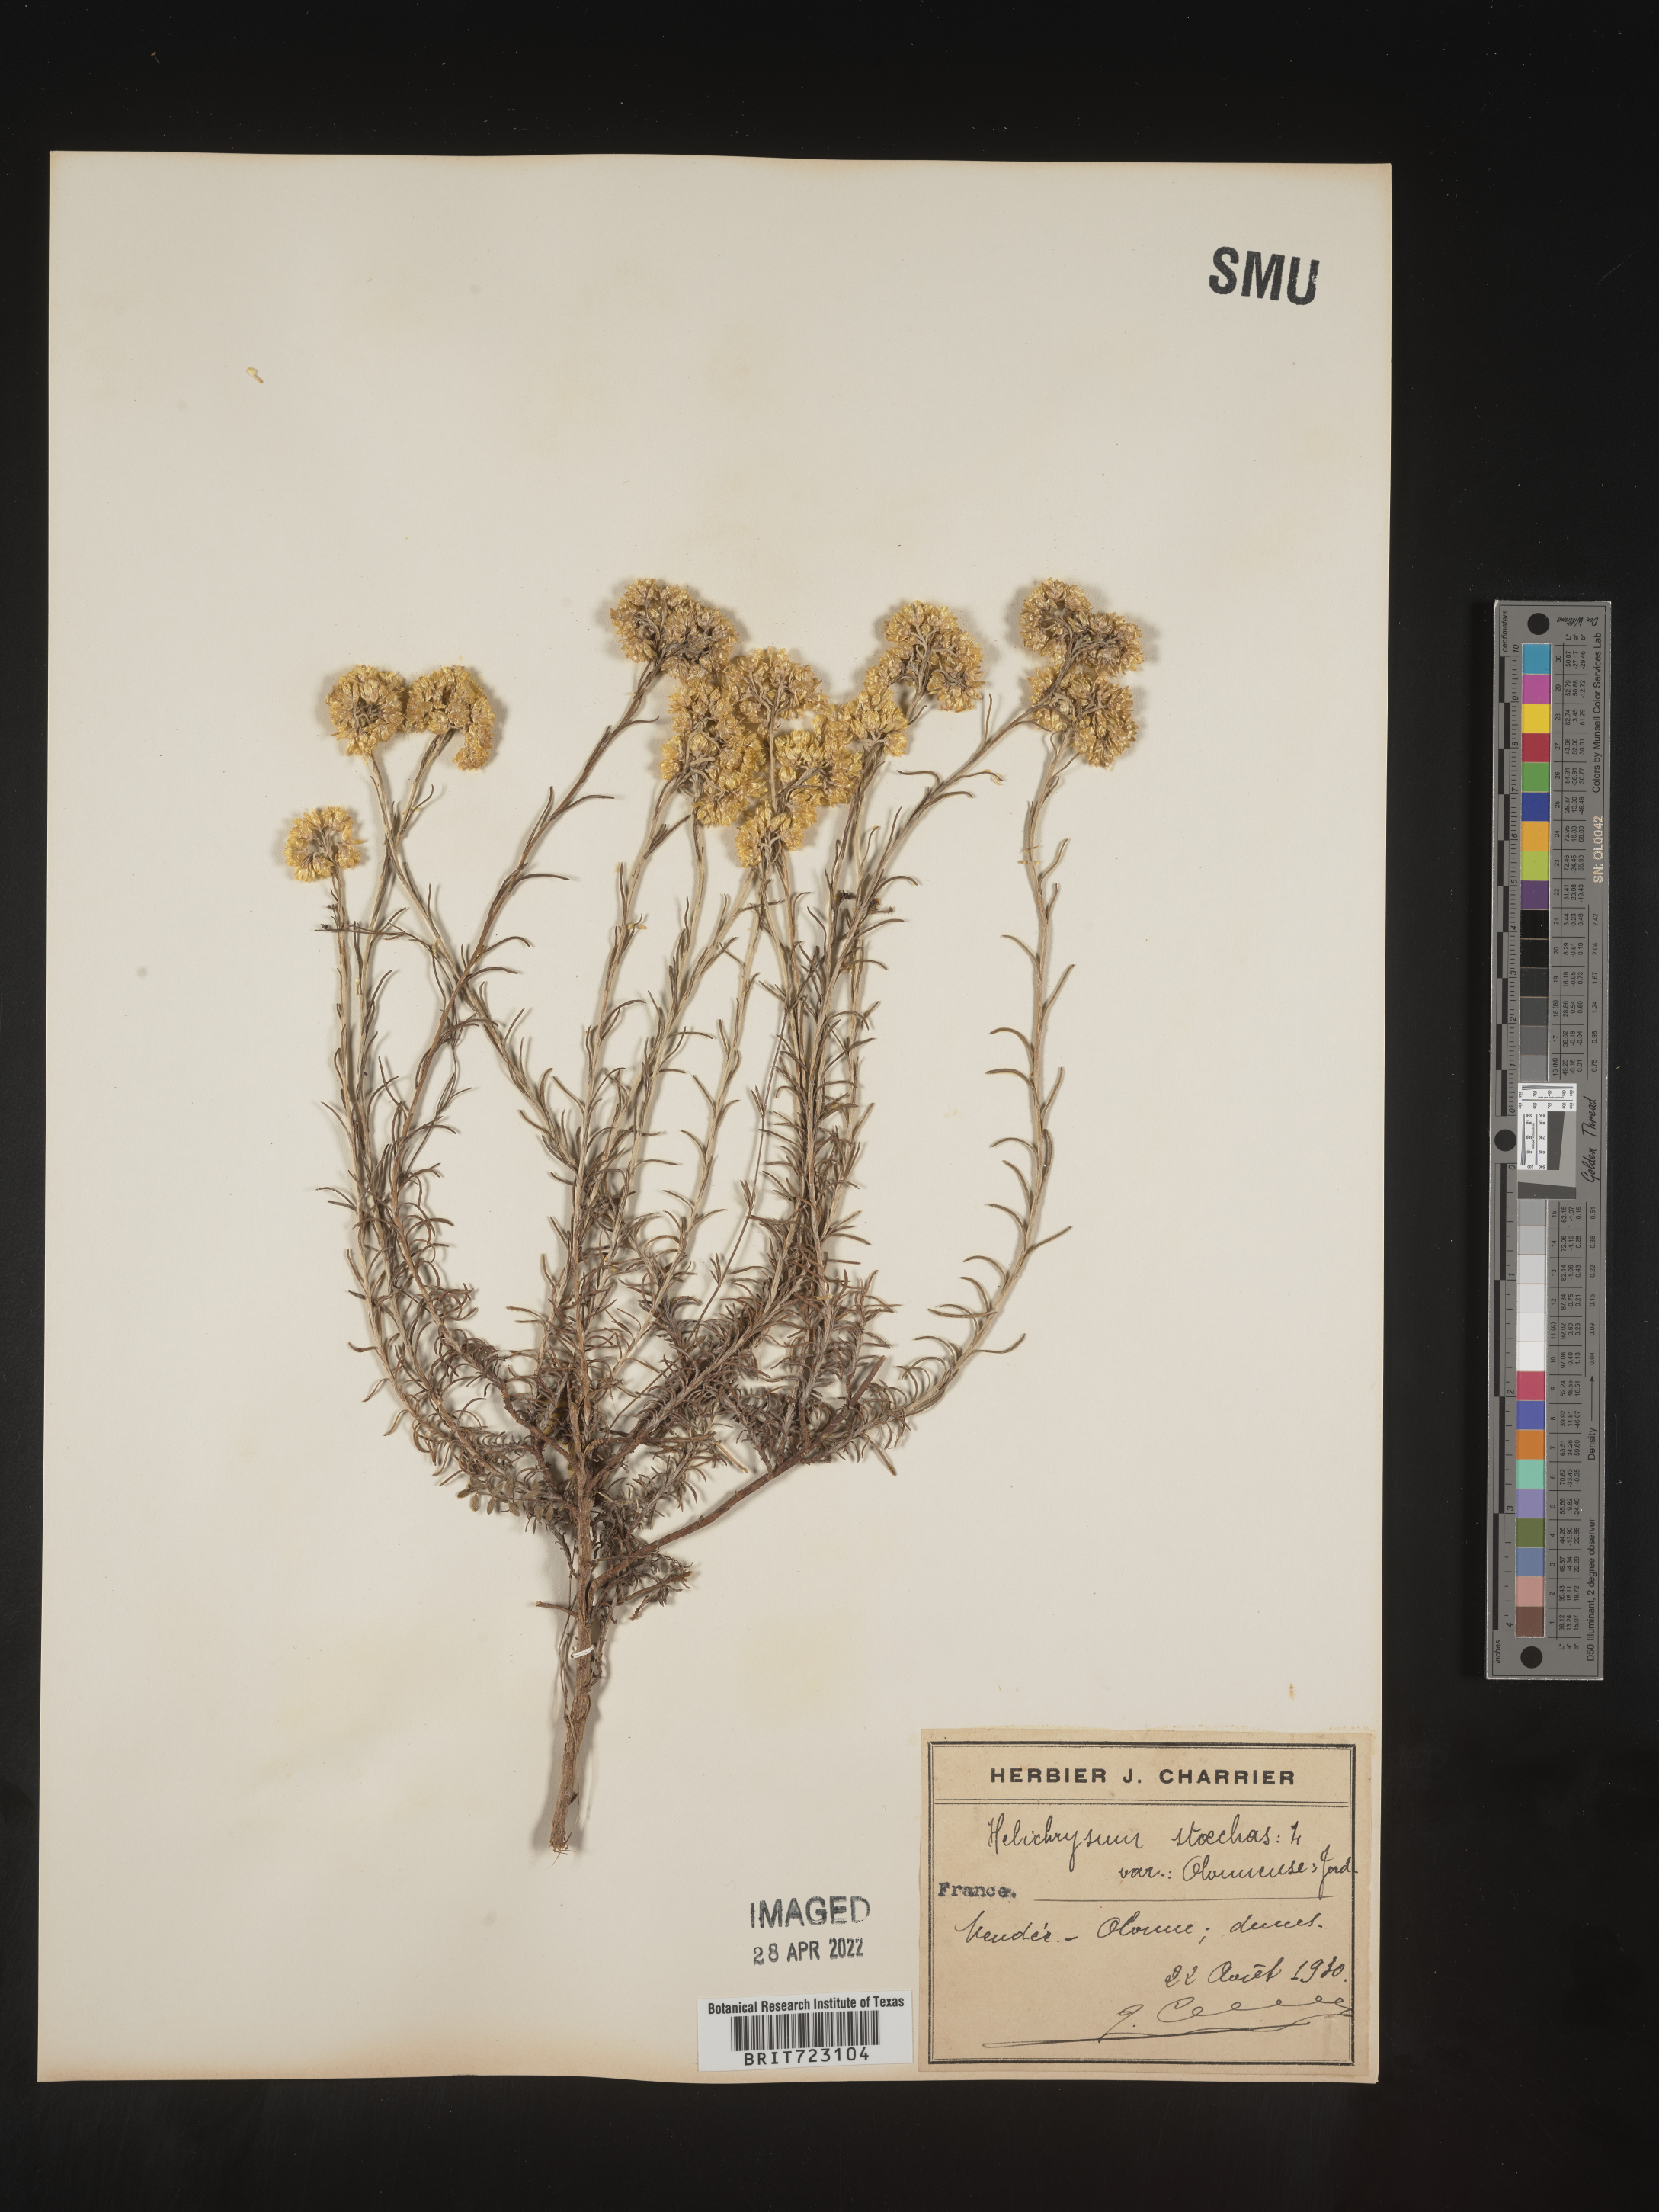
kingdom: Plantae
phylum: Tracheophyta
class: Magnoliopsida
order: Asterales
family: Asteraceae
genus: Helichrysum
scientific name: Helichrysum stoechas
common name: Goldilocks
